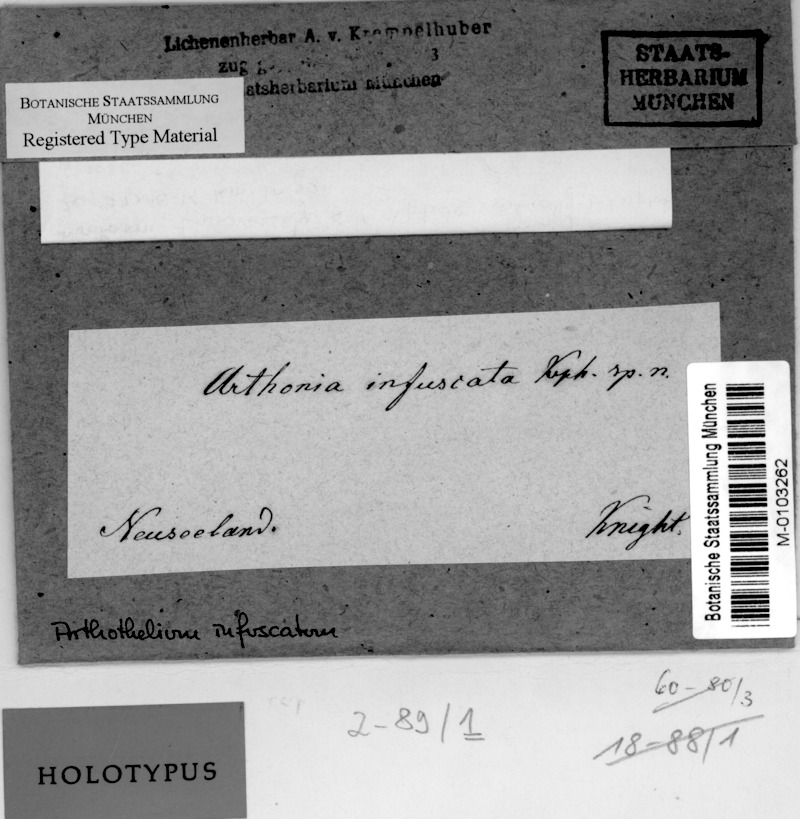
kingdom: Fungi
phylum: Ascomycota
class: Arthoniomycetes
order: Arthoniales
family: Arthoniaceae
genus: Arthothelium
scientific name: Arthothelium infuscatum
